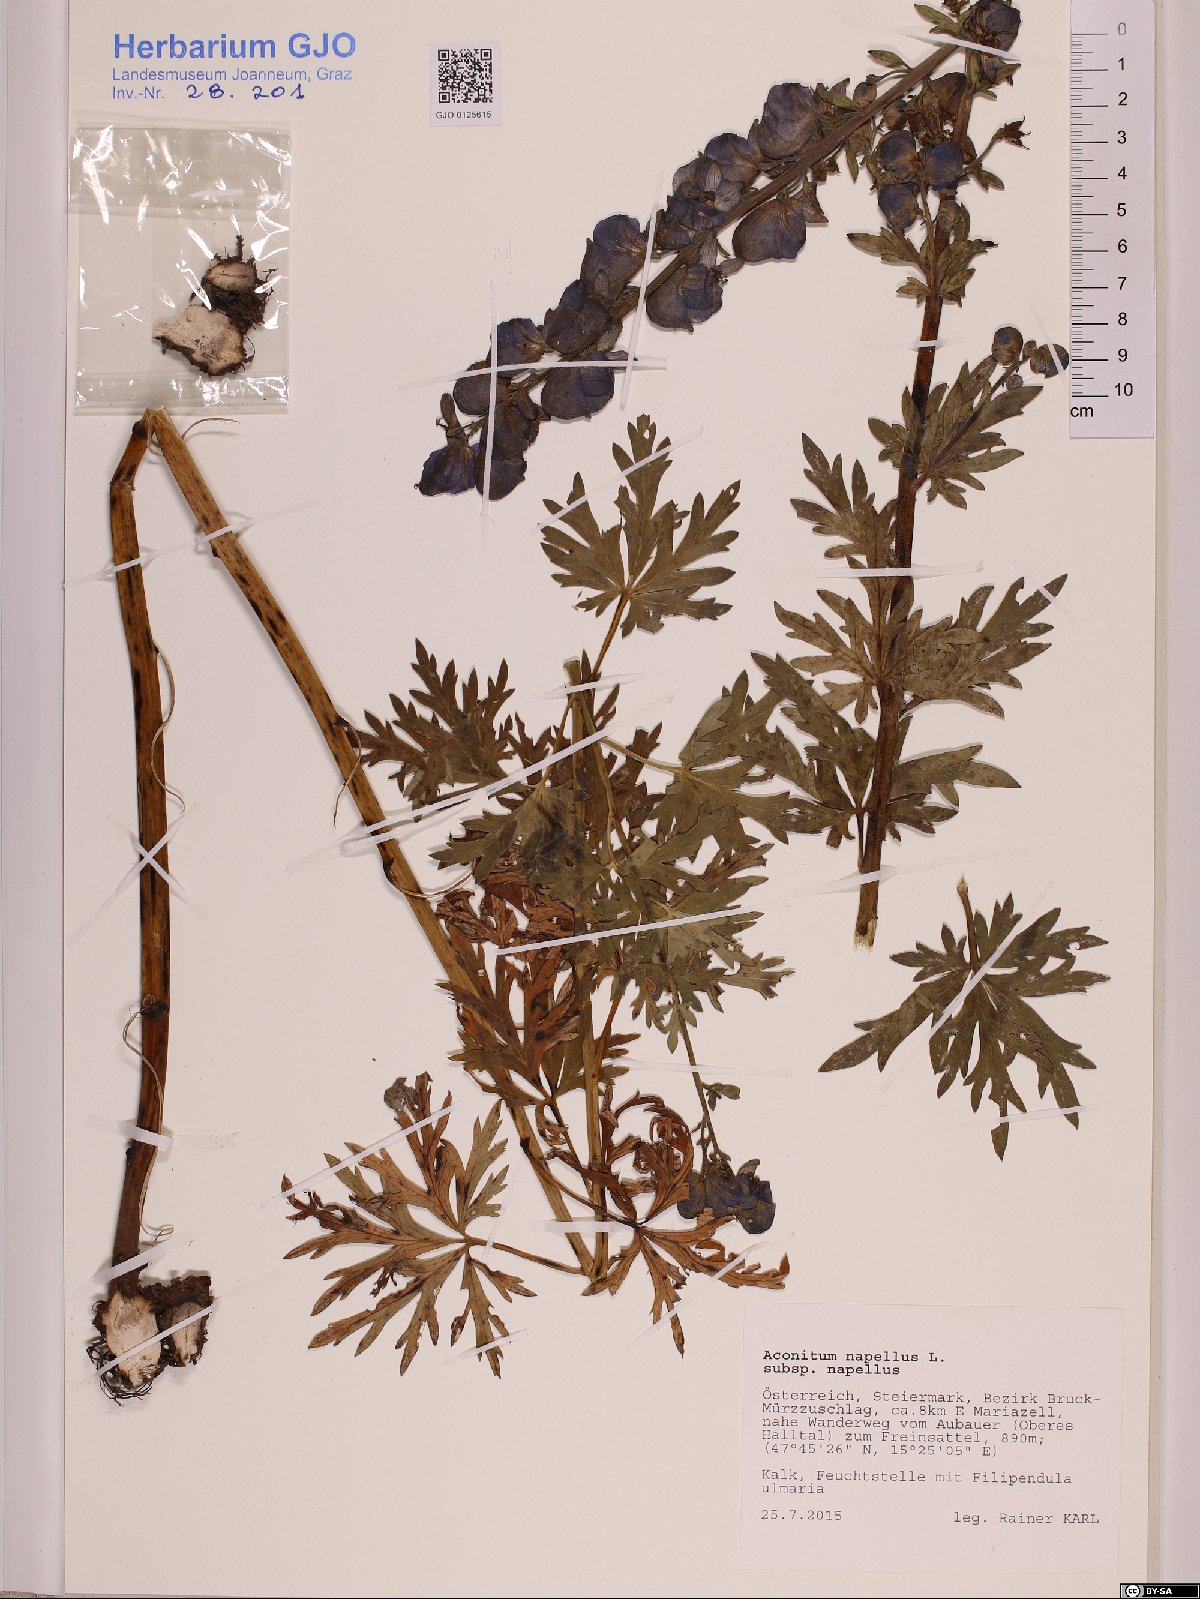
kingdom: Plantae
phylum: Tracheophyta
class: Magnoliopsida
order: Ranunculales
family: Ranunculaceae
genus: Aconitum
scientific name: Aconitum napellus
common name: Garden monkshood
